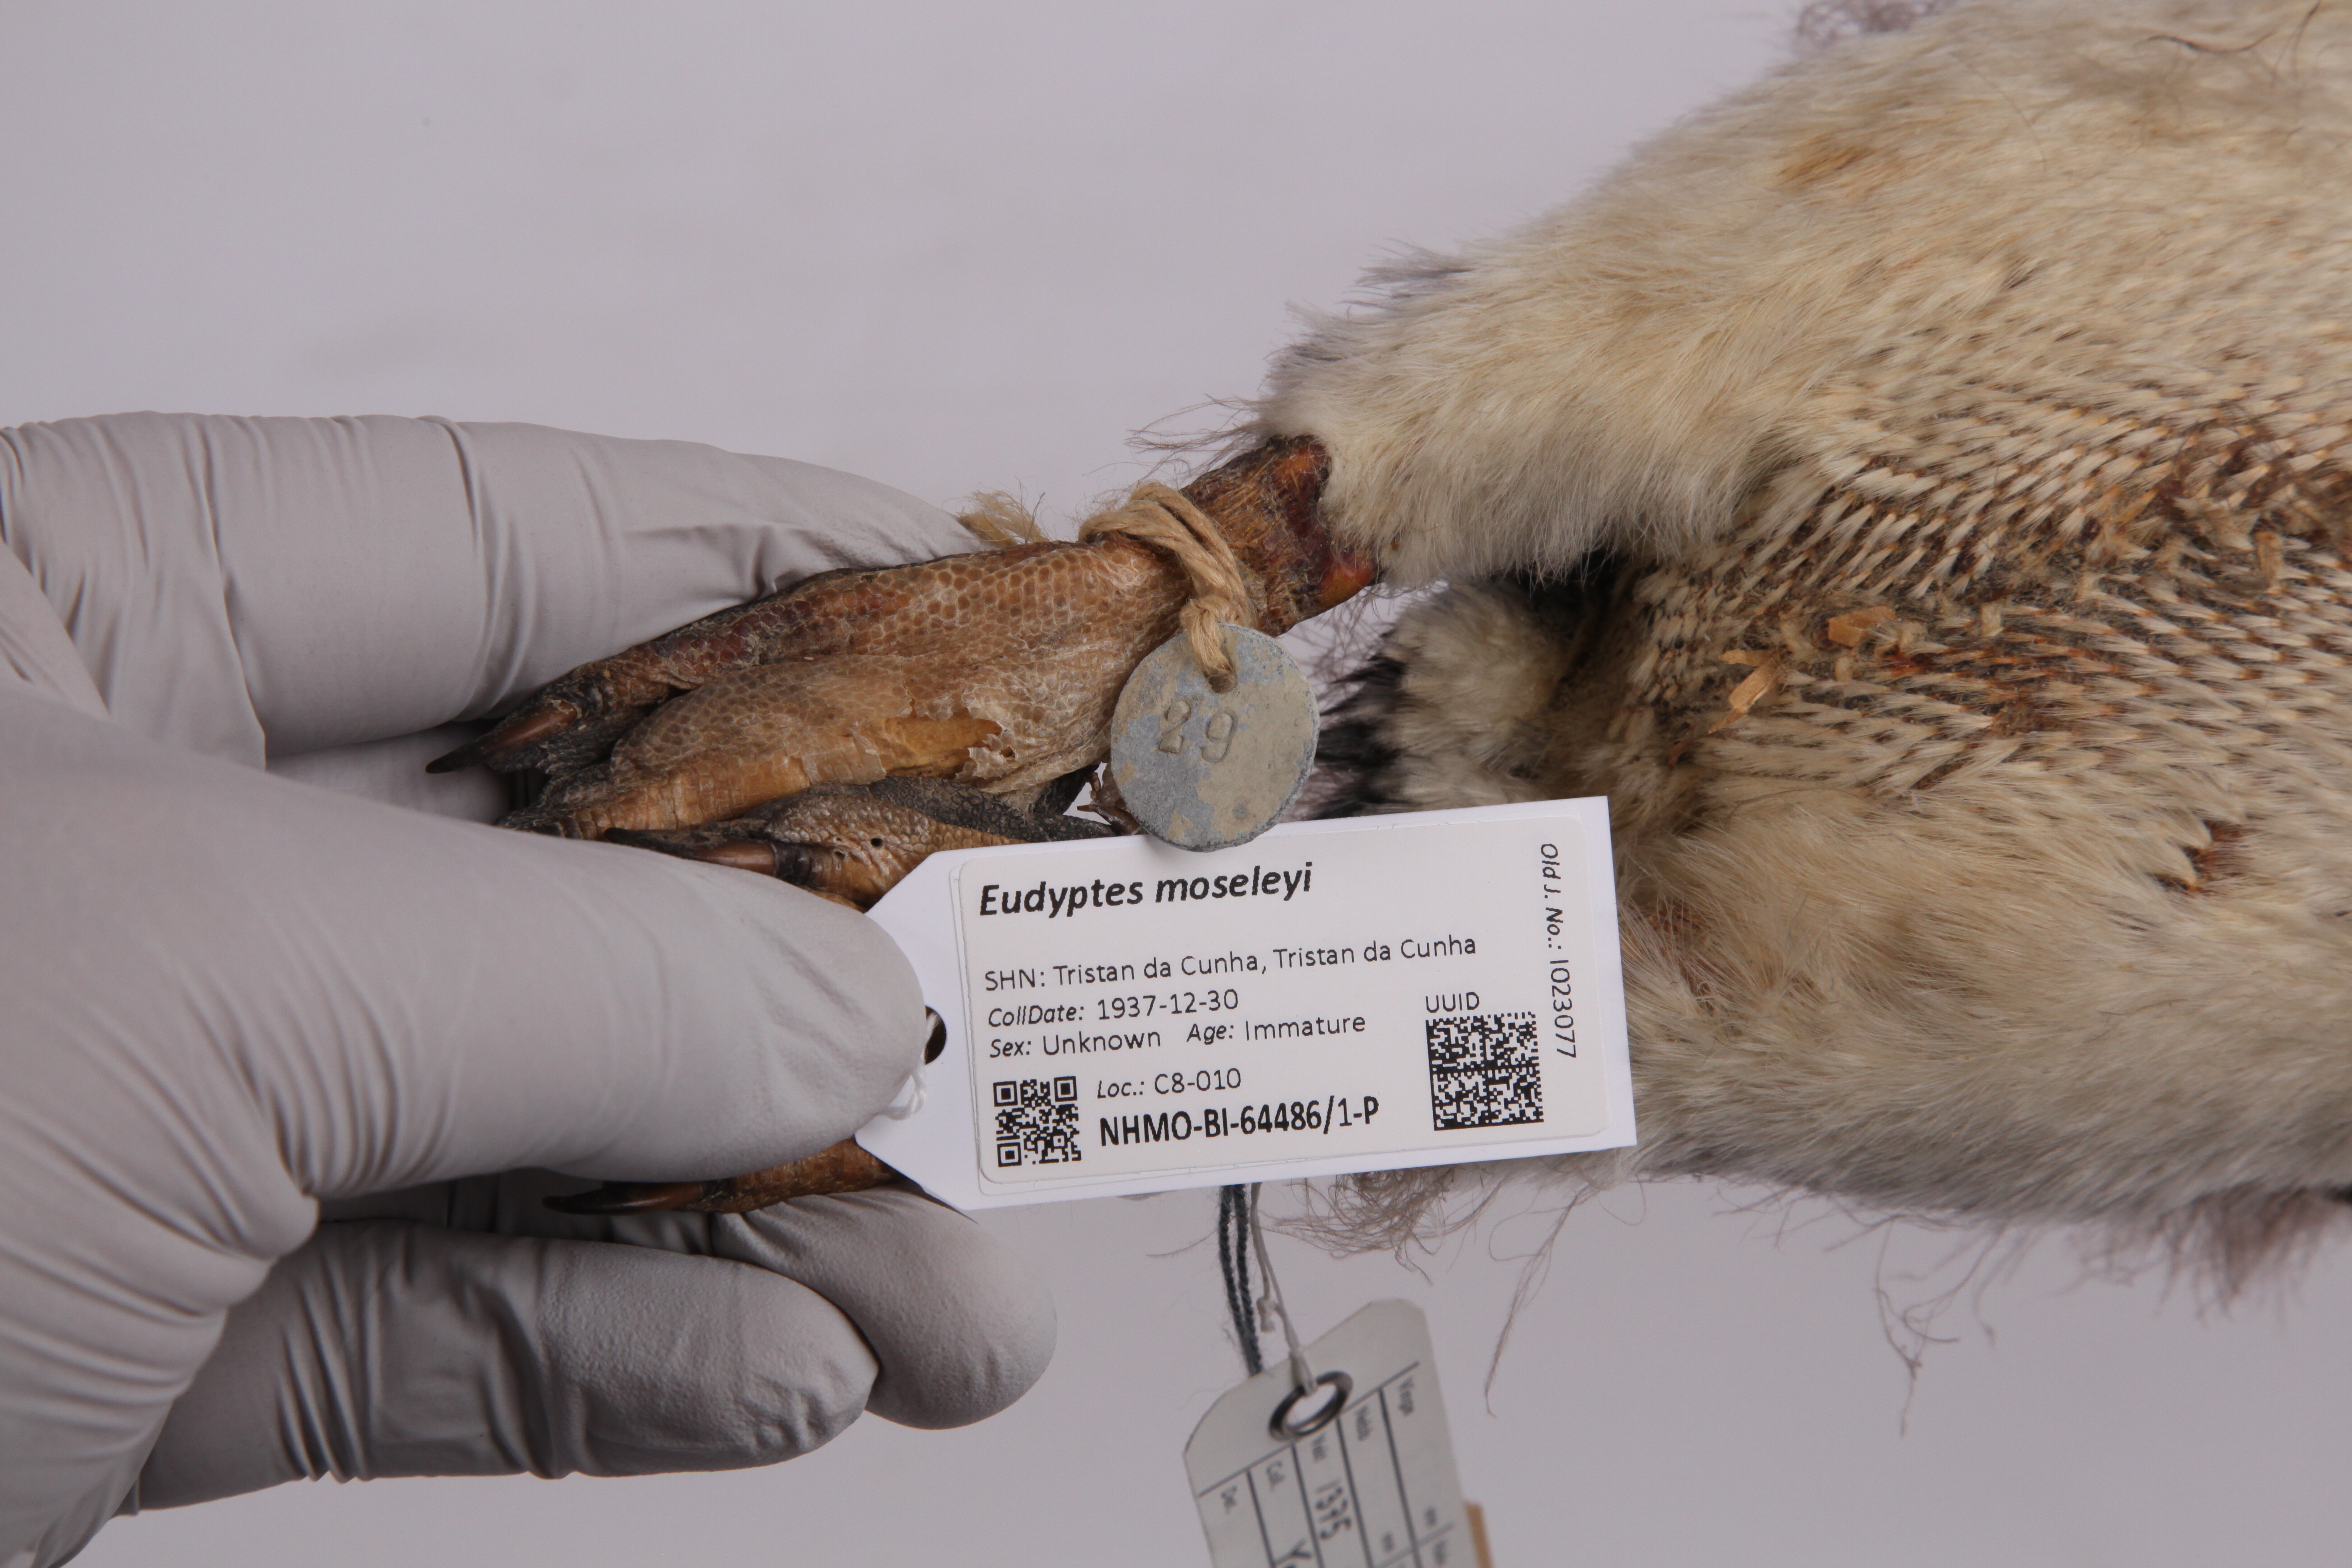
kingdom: Animalia
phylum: Chordata
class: Aves
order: Sphenisciformes
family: Spheniscidae
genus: Eudyptes
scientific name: Eudyptes moseleyi
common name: Northern rockhopper penguin
